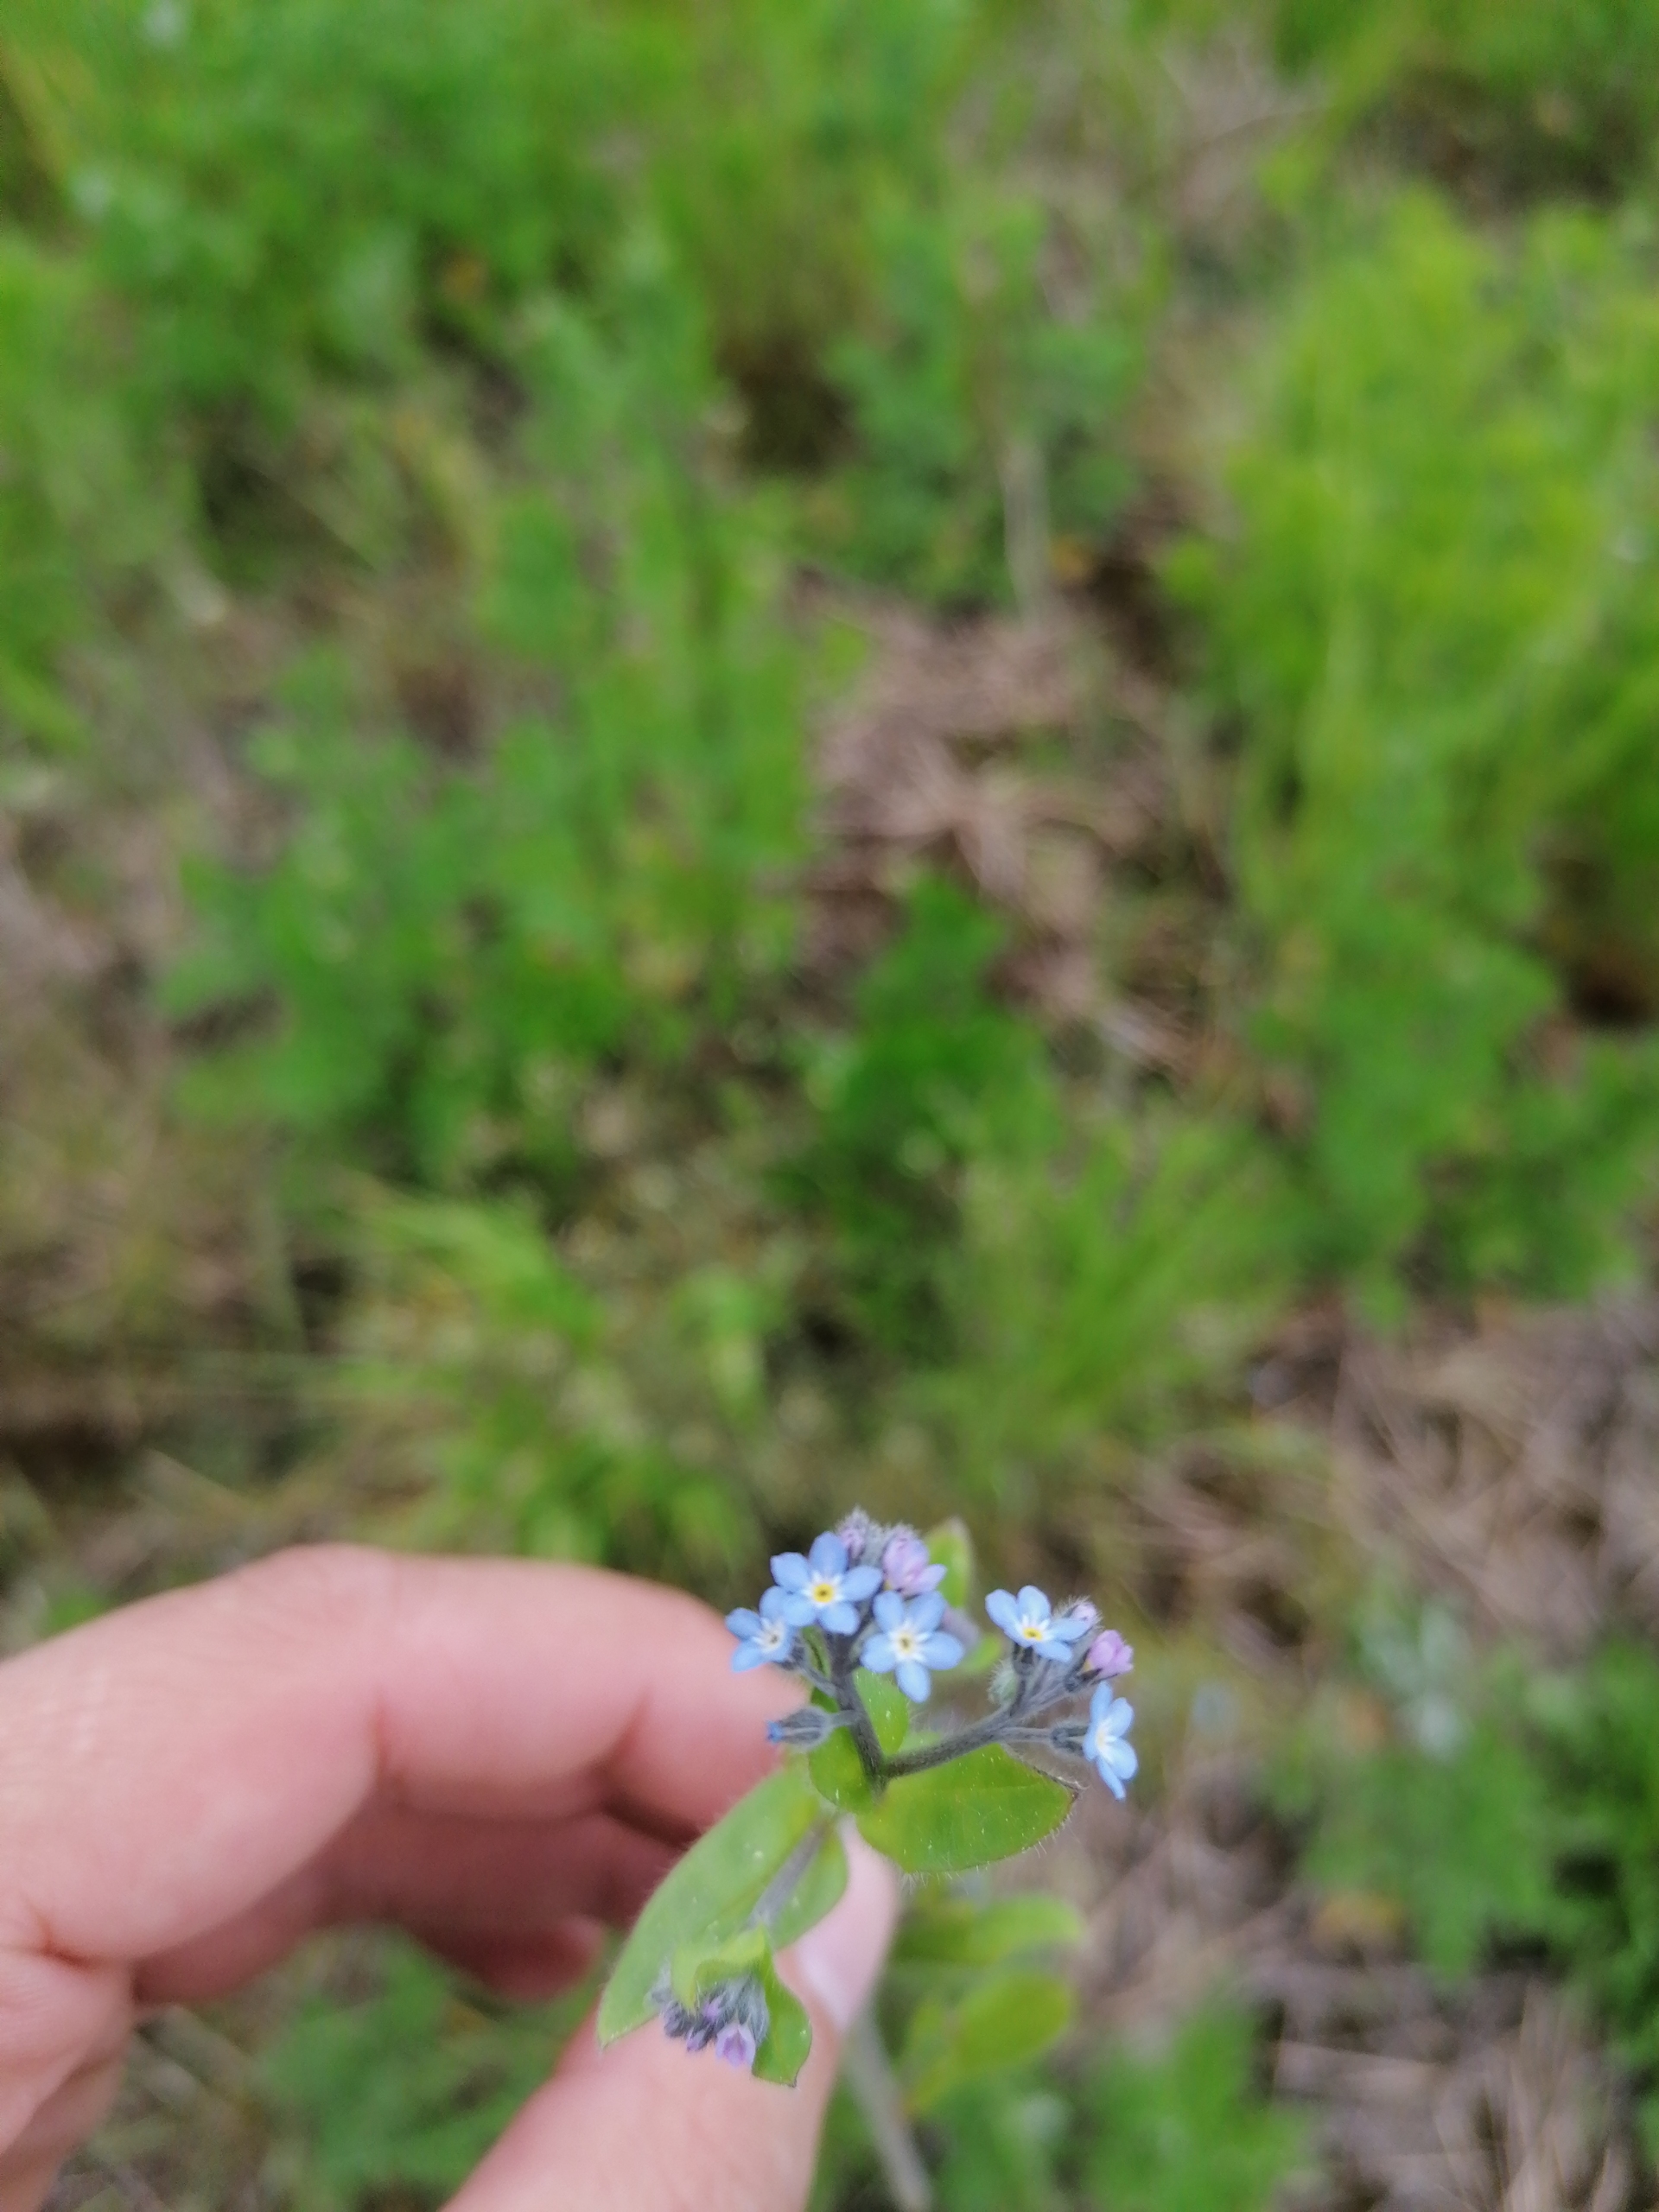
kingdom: Plantae
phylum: Tracheophyta
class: Magnoliopsida
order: Boraginales
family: Boraginaceae
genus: Myosotis
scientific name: Myosotis arvensis
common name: Mark-forglemmigej
